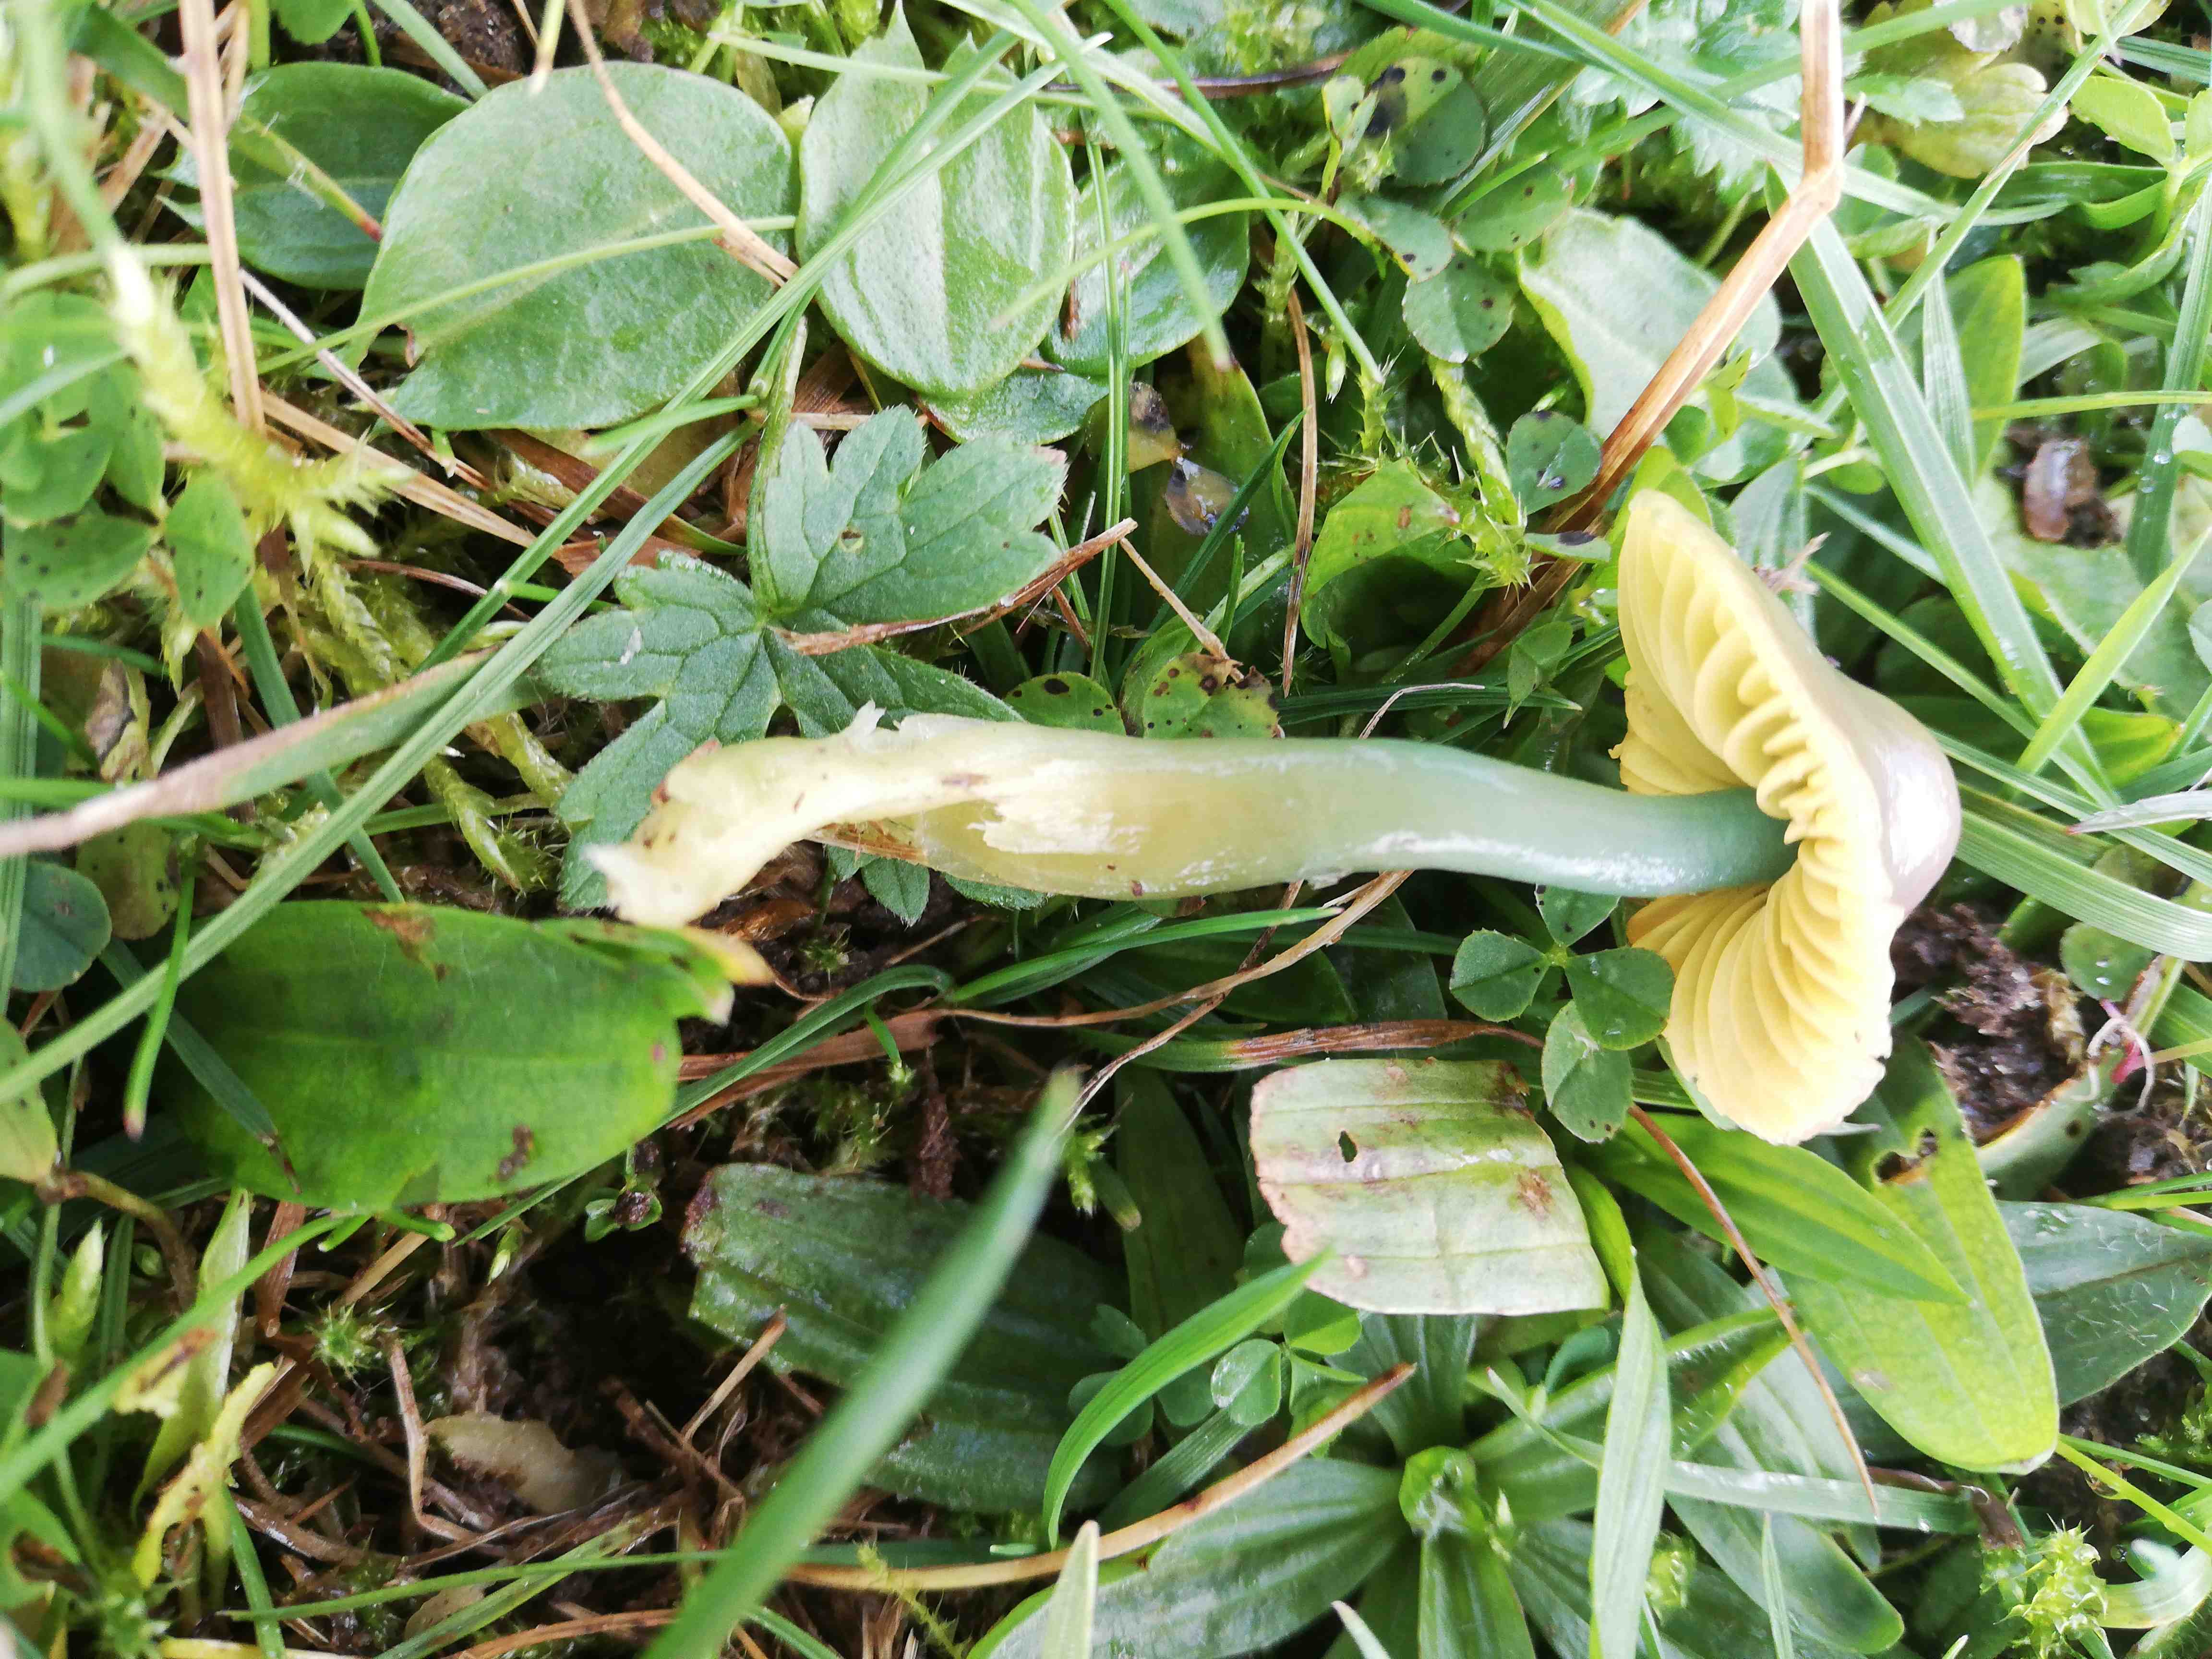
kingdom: Fungi
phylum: Basidiomycota
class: Agaricomycetes
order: Agaricales
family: Hygrophoraceae
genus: Gliophorus
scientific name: Gliophorus psittacinus
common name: papegøje-vokshat
